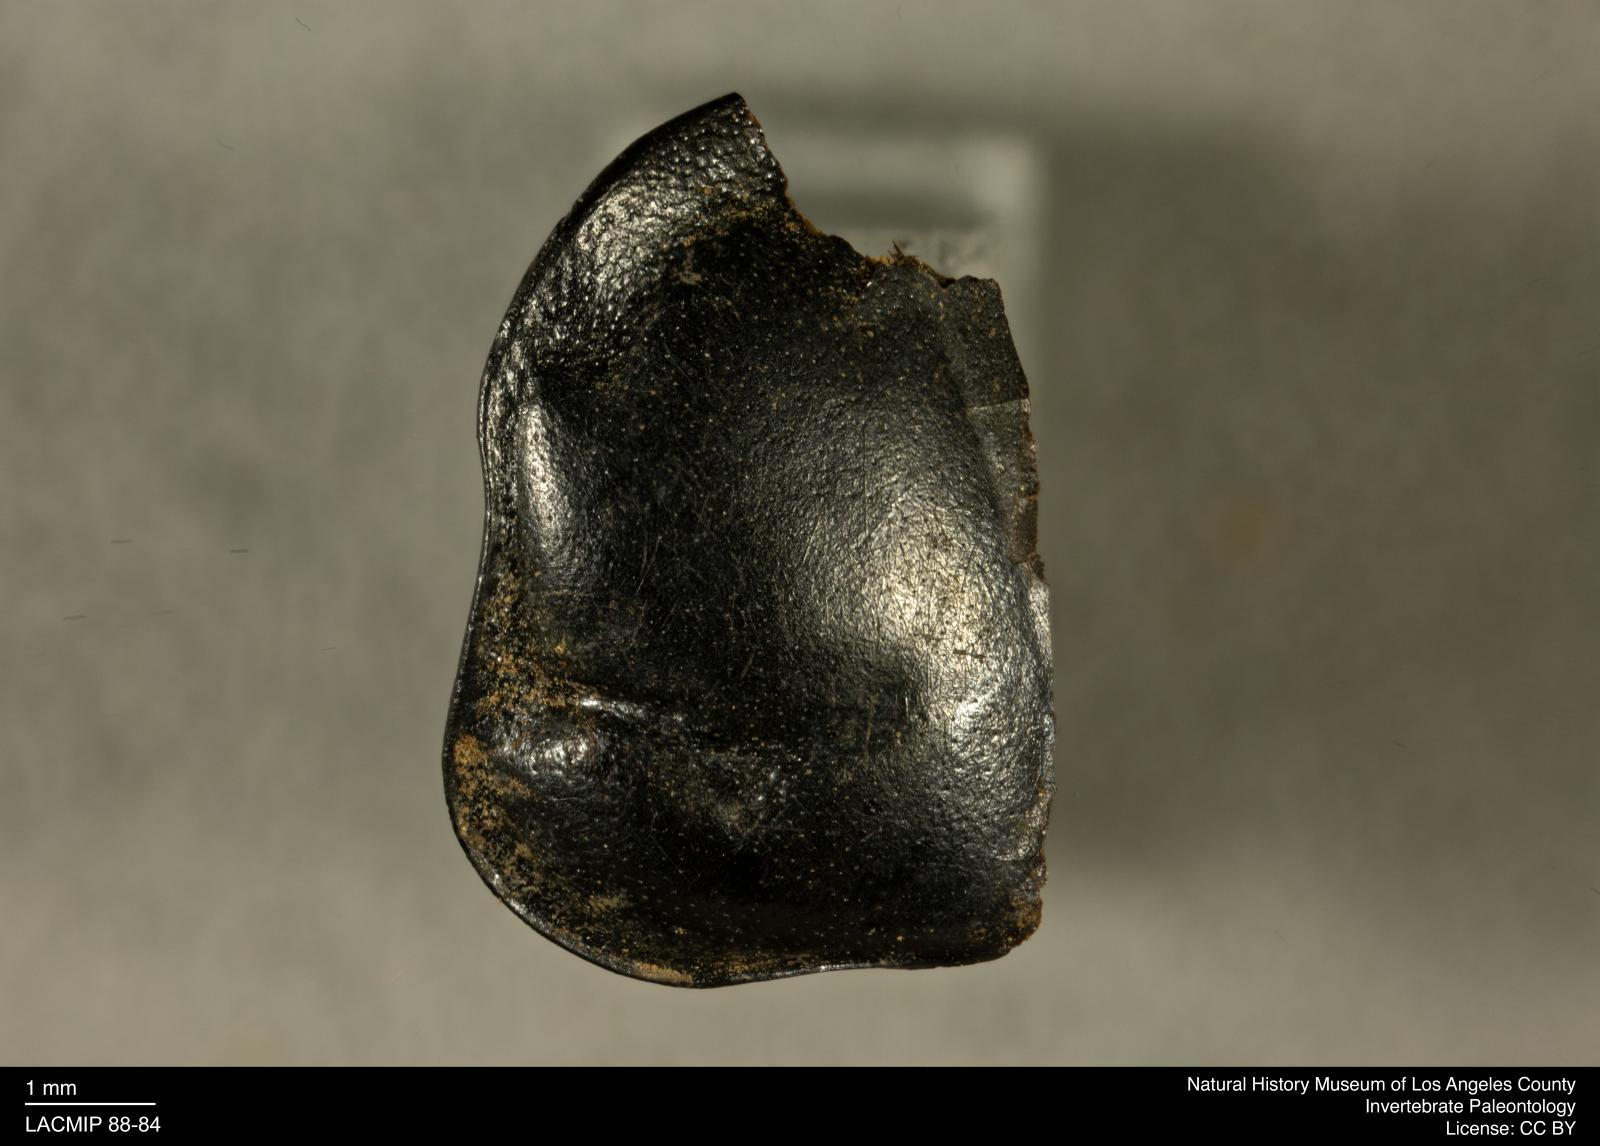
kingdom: Animalia
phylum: Arthropoda
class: Insecta
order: Coleoptera
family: Staphylinidae
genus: Nicrophorus
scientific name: Nicrophorus marginatus
